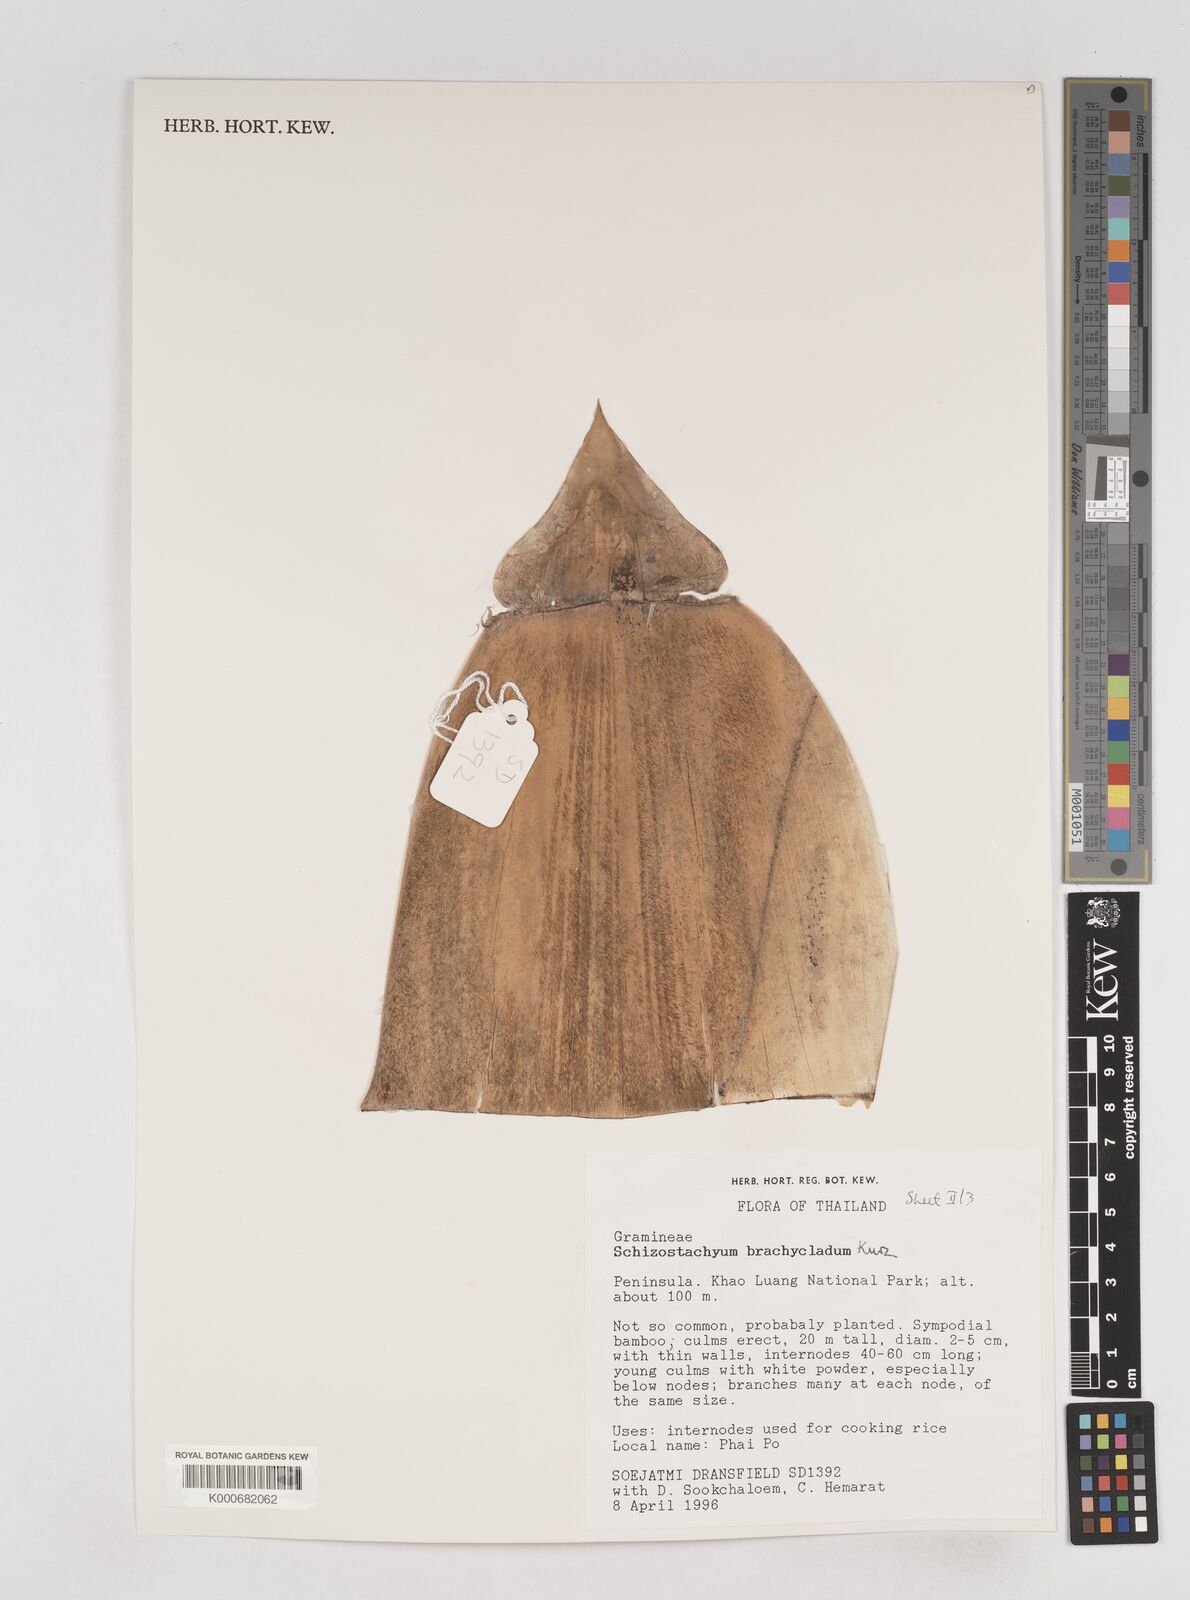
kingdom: Plantae
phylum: Tracheophyta
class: Liliopsida
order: Poales
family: Poaceae
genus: Schizostachyum
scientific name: Schizostachyum brachycladum
